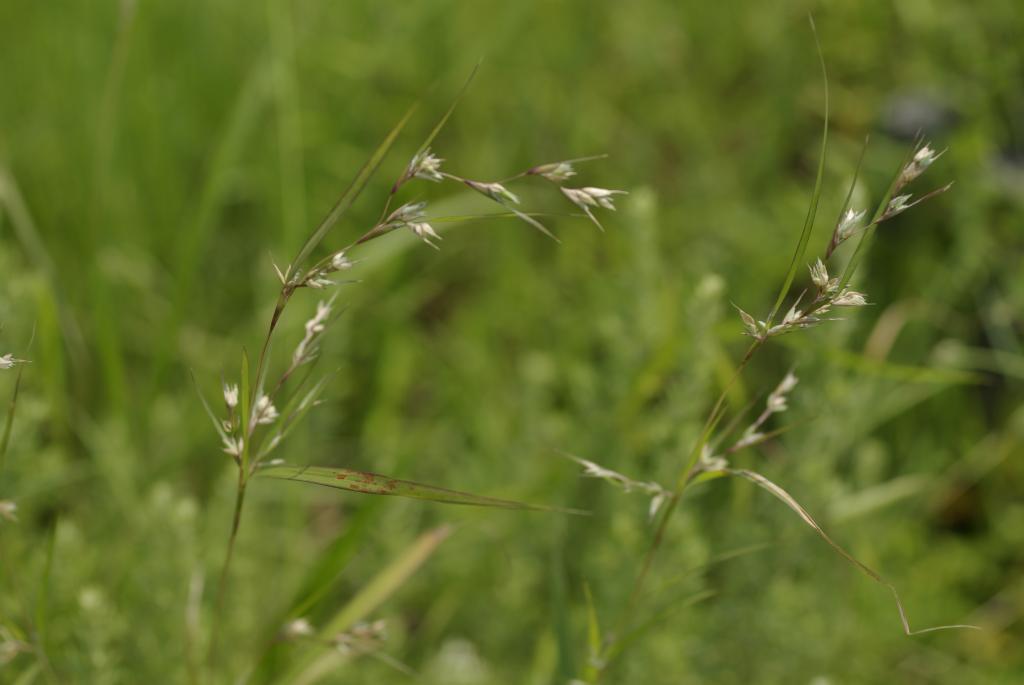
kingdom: Plantae
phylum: Tracheophyta
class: Liliopsida
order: Poales
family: Poaceae
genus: Apluda
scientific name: Apluda mutica
